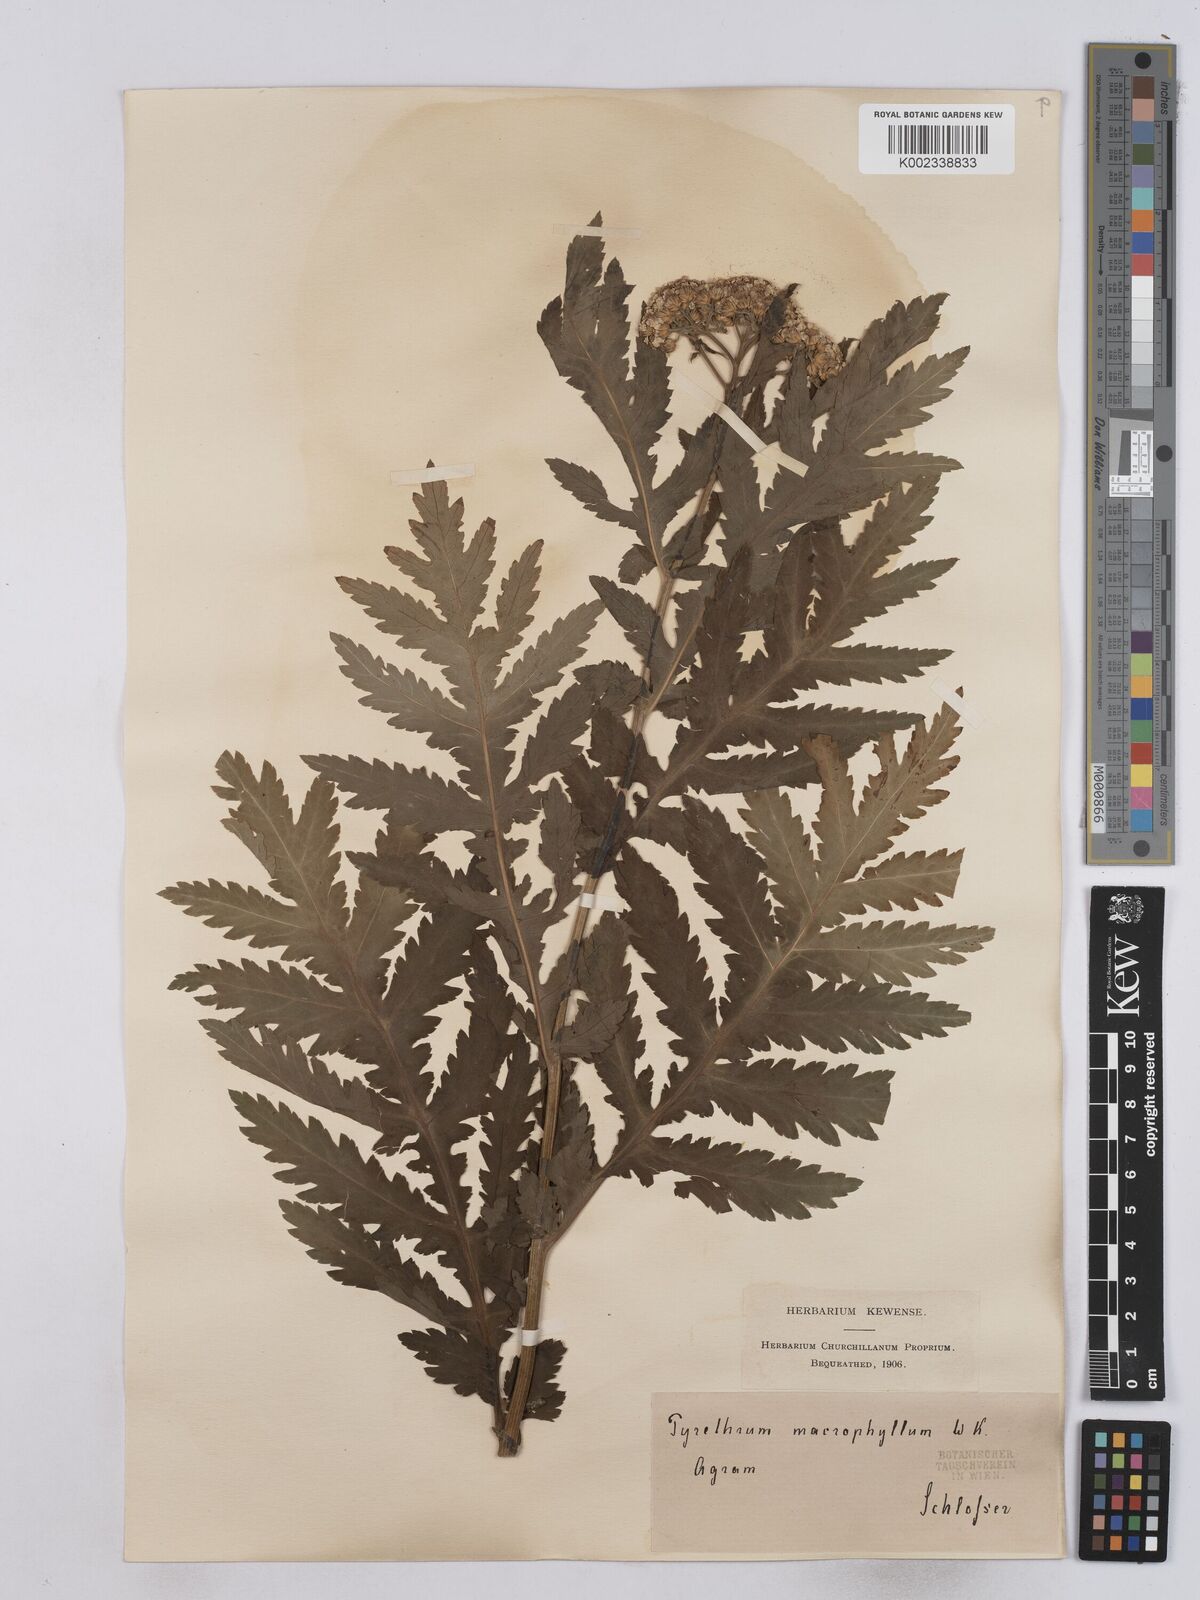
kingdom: Plantae
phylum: Tracheophyta
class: Magnoliopsida
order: Asterales
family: Asteraceae
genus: Tanacetum
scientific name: Tanacetum macrophyllum
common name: Rayed tansy
